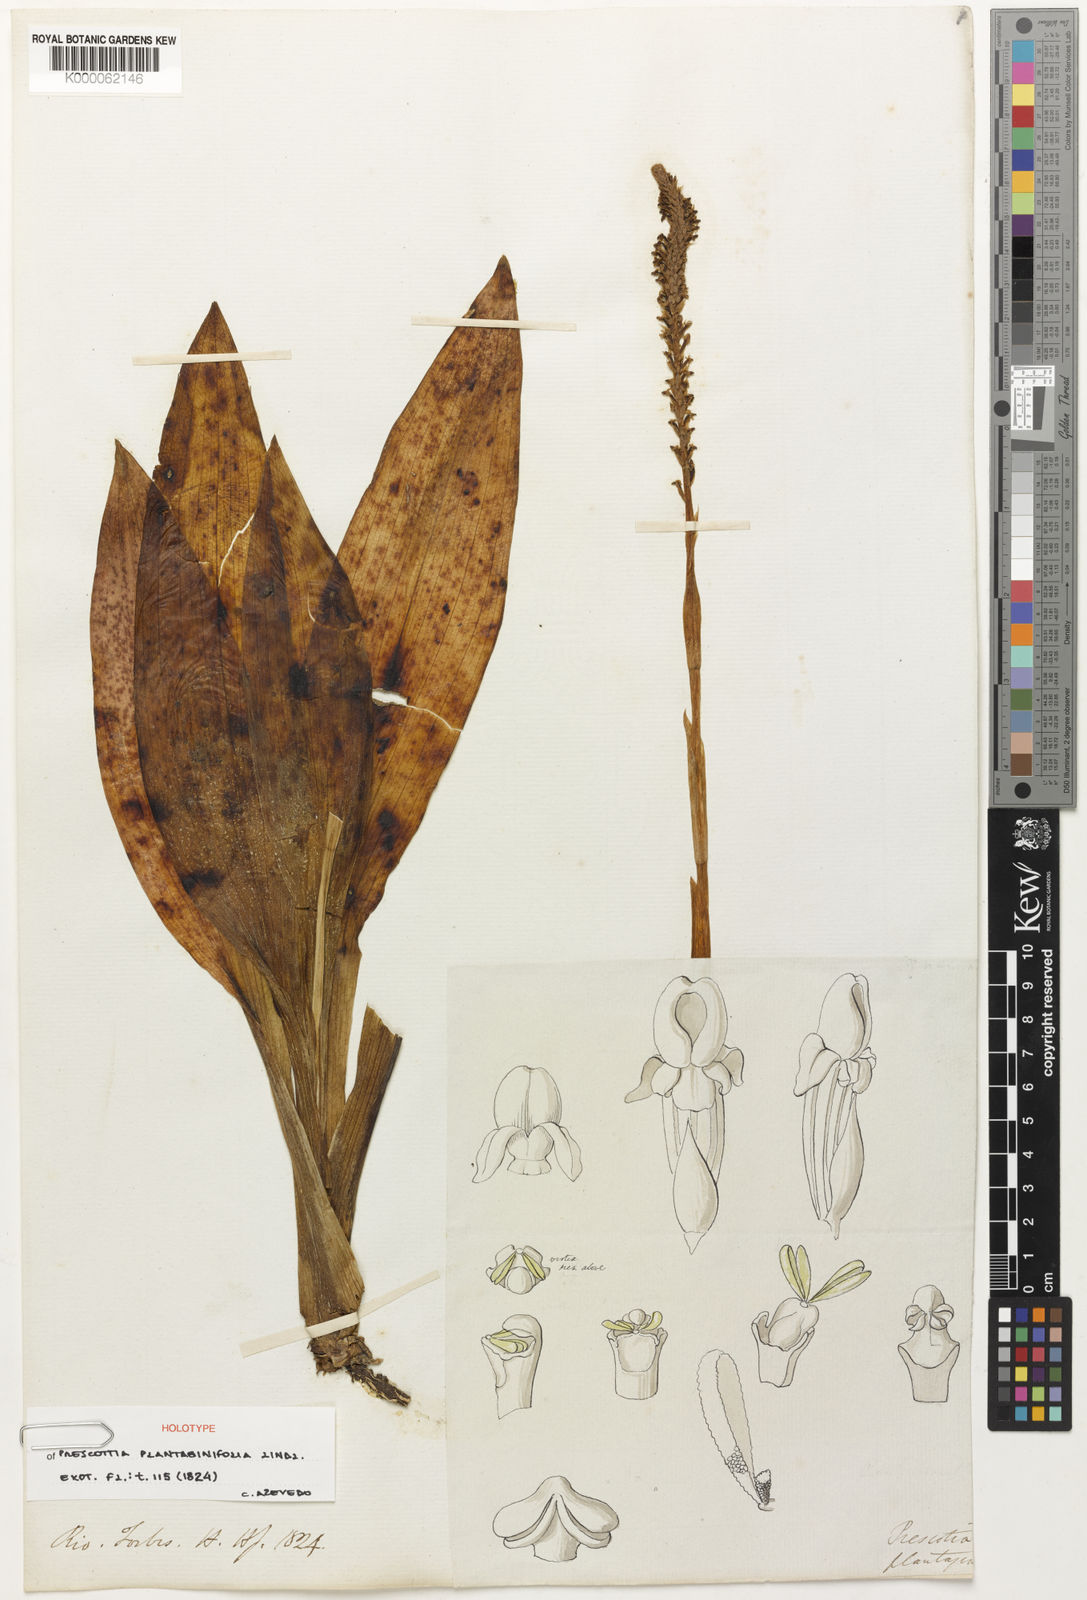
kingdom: Plantae
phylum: Tracheophyta
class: Liliopsida
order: Asparagales
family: Orchidaceae
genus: Prescottia
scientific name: Prescottia
